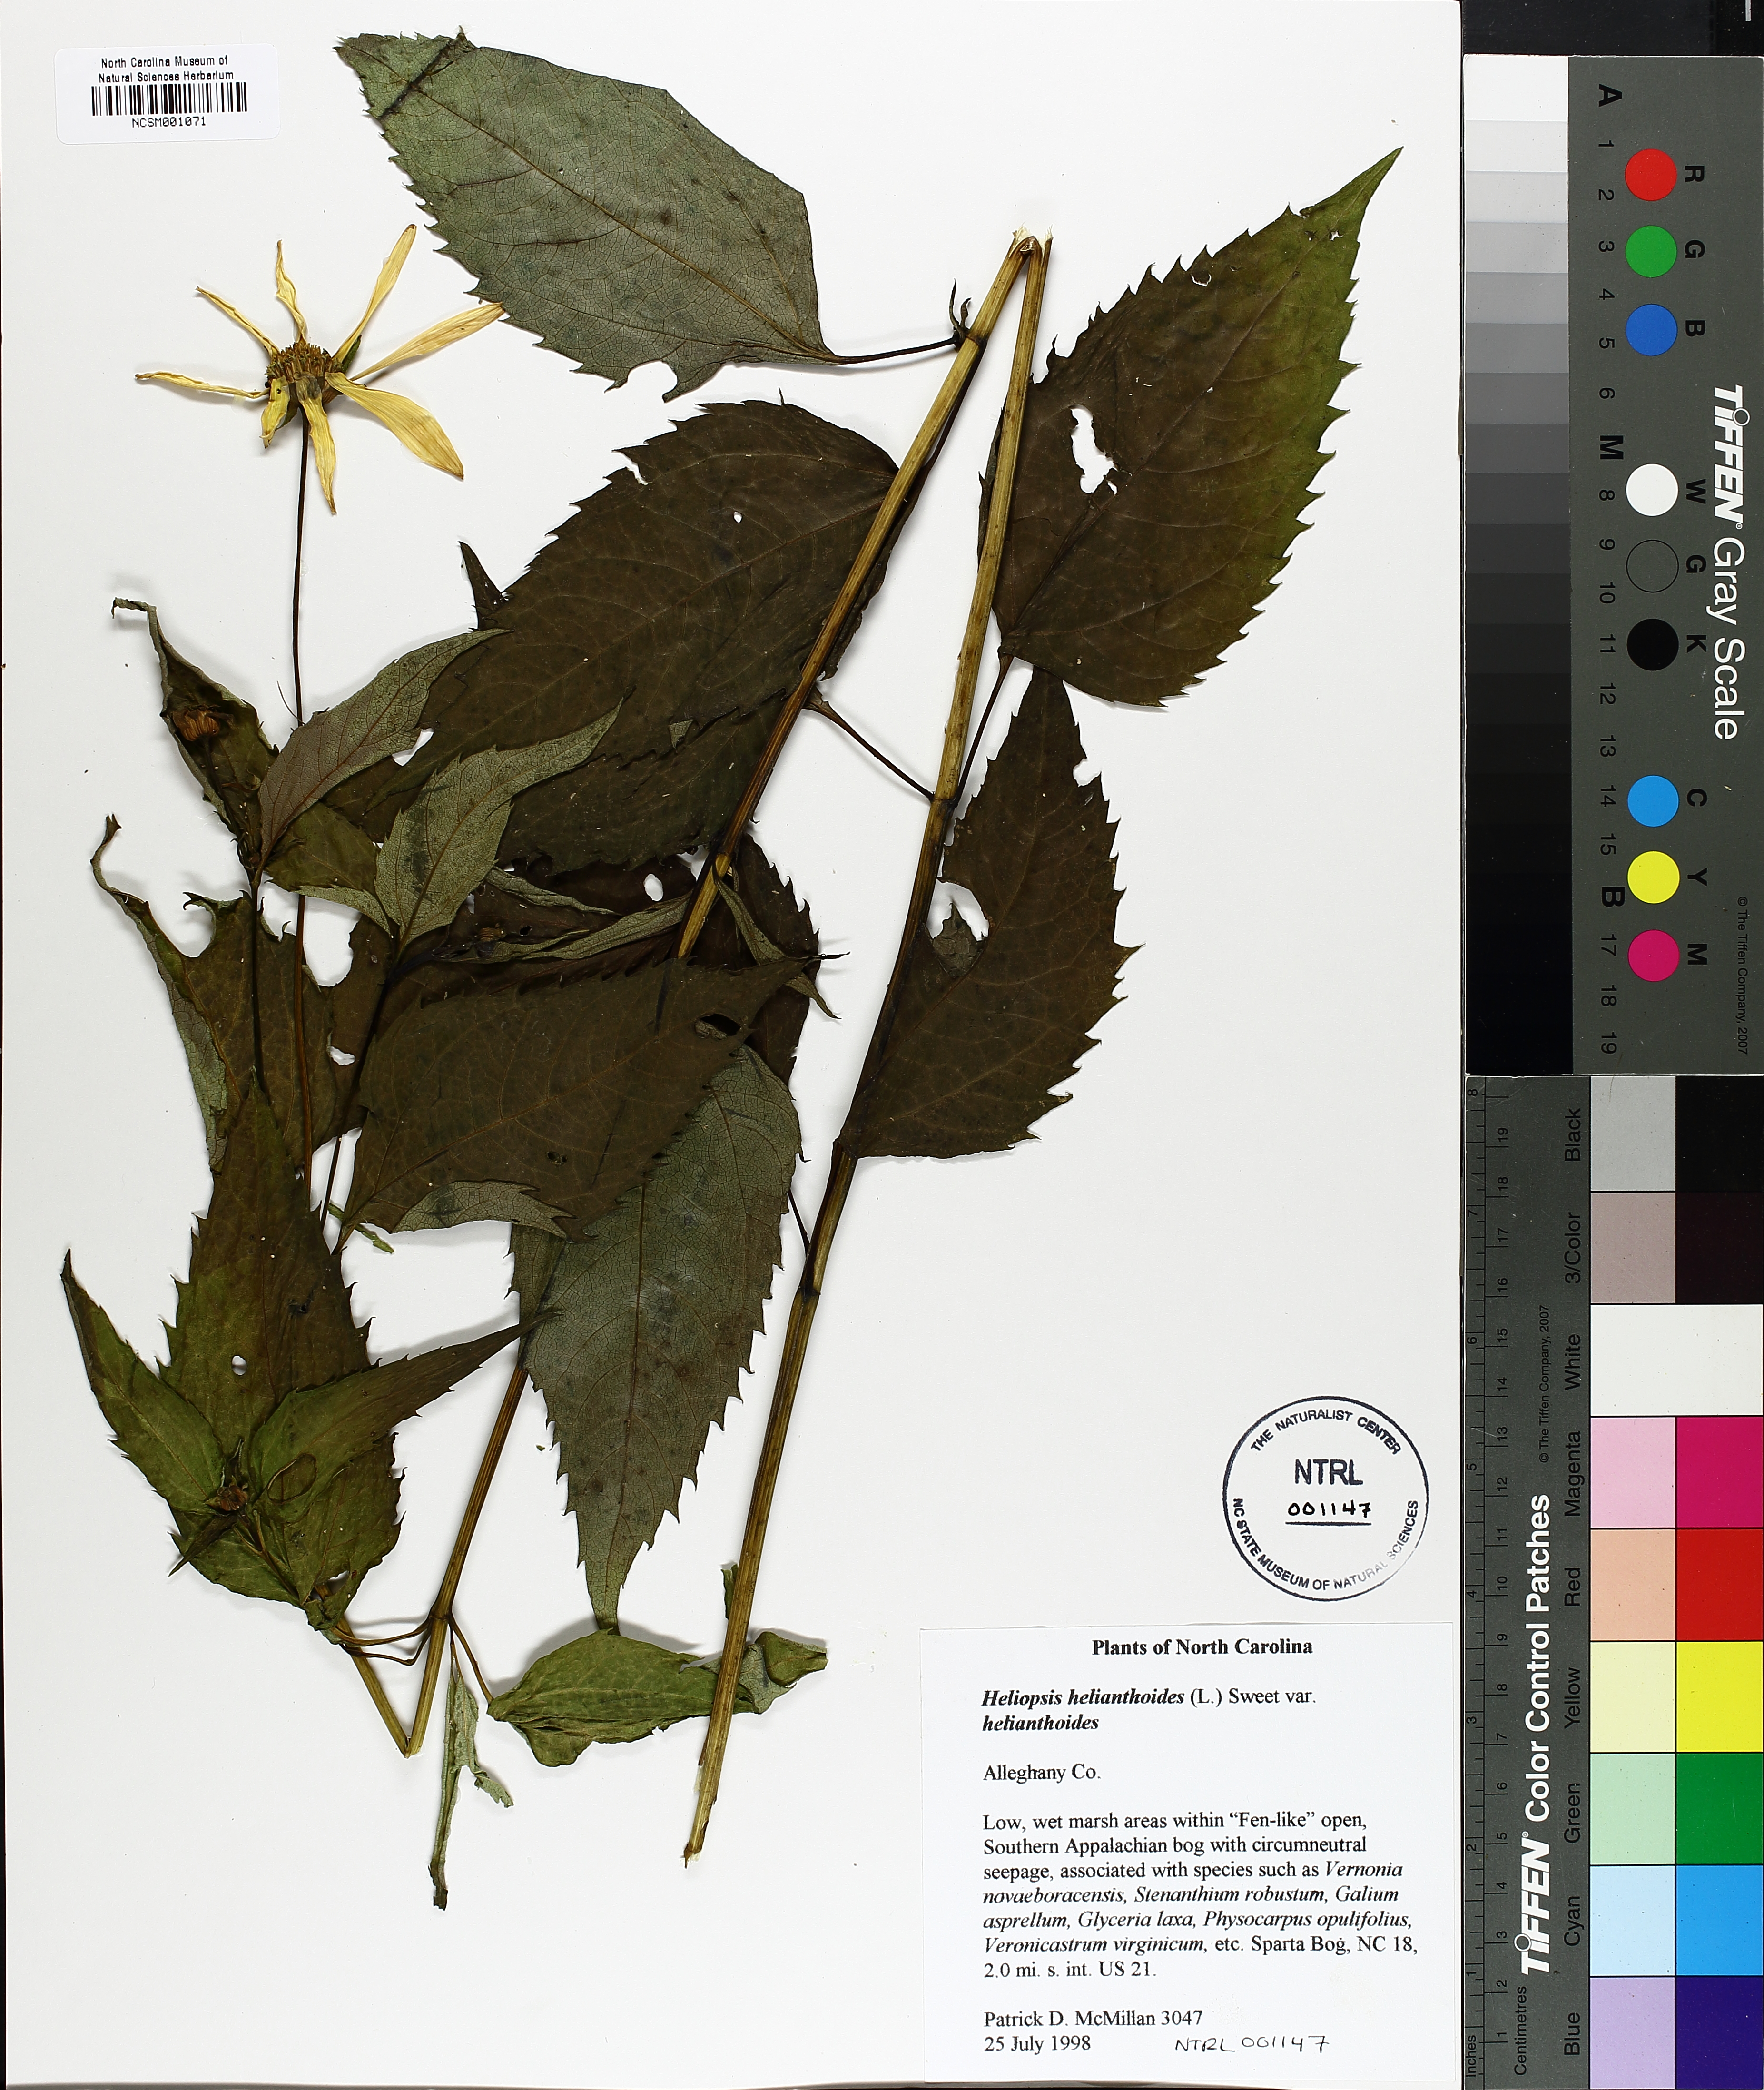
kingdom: Plantae
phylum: Tracheophyta
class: Magnoliopsida
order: Asterales
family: Asteraceae
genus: Heliopsis
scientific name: Heliopsis helianthoides
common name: False sunflower
